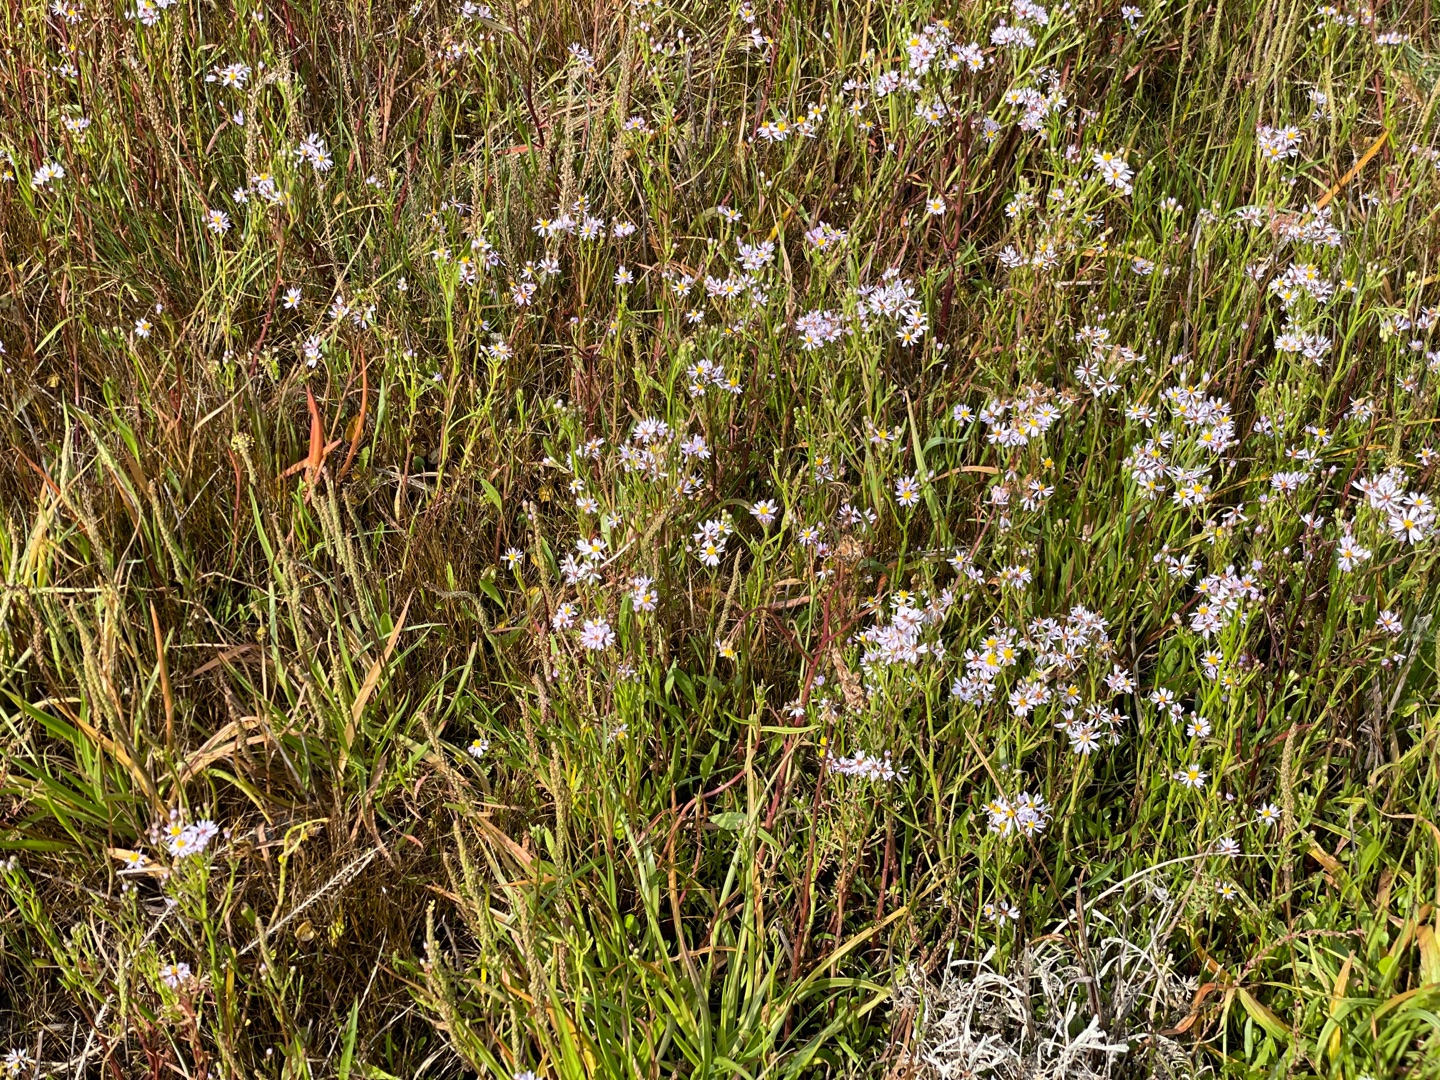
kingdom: Plantae
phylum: Tracheophyta
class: Magnoliopsida
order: Asterales
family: Asteraceae
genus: Tripolium
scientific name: Tripolium pannonicum
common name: Strandasters
